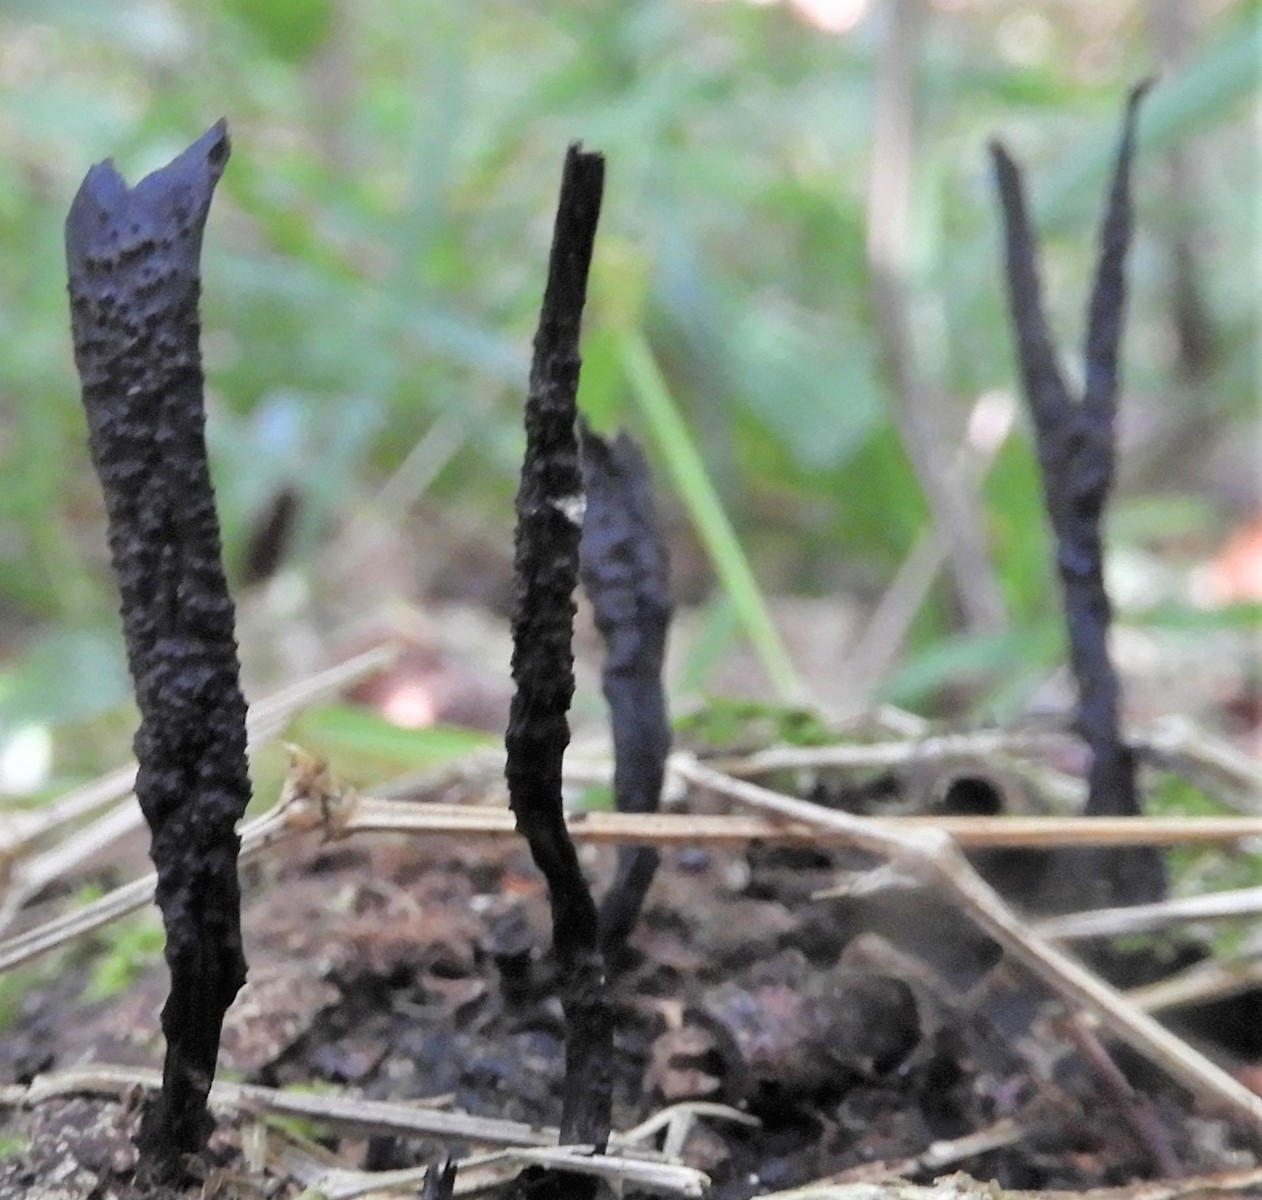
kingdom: Fungi
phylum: Ascomycota
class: Sordariomycetes
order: Xylariales
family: Xylariaceae
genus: Xylaria
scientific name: Xylaria hypoxylon
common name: grenet stødsvamp
